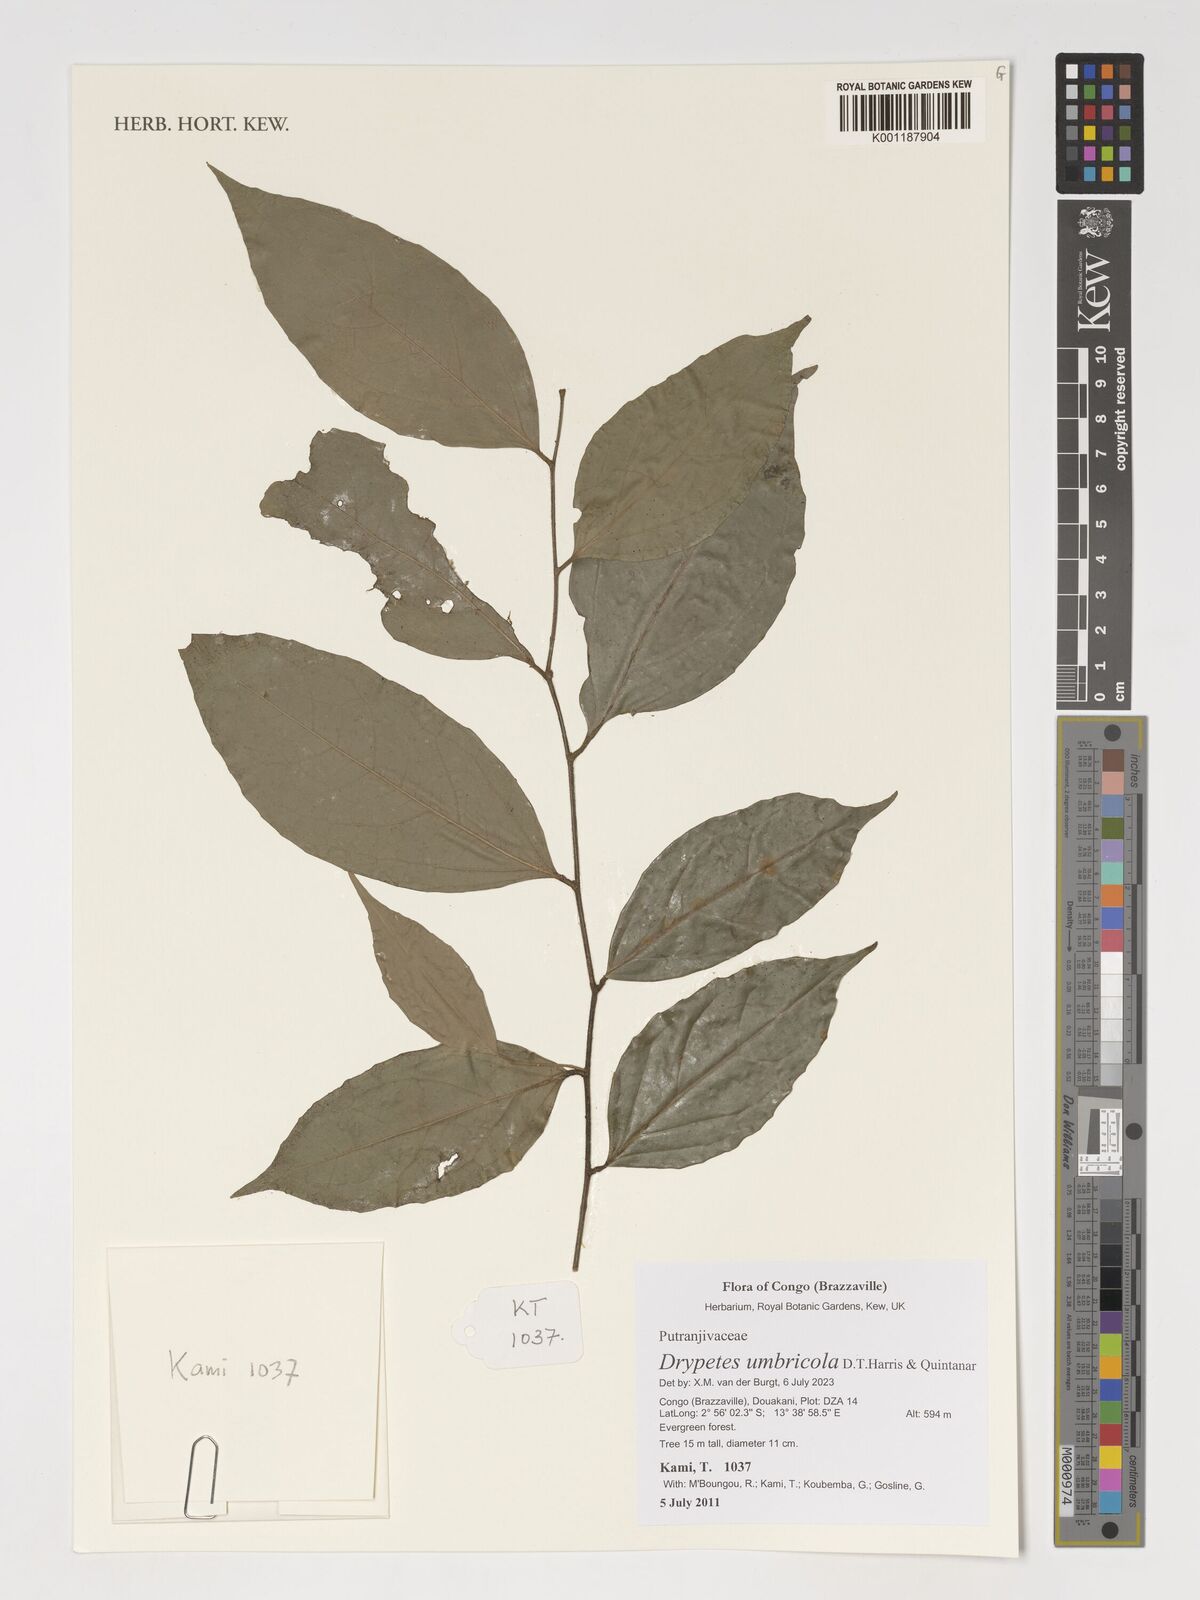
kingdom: Plantae
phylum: Tracheophyta
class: Magnoliopsida
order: Malpighiales
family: Putranjivaceae
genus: Drypetes
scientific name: Drypetes
